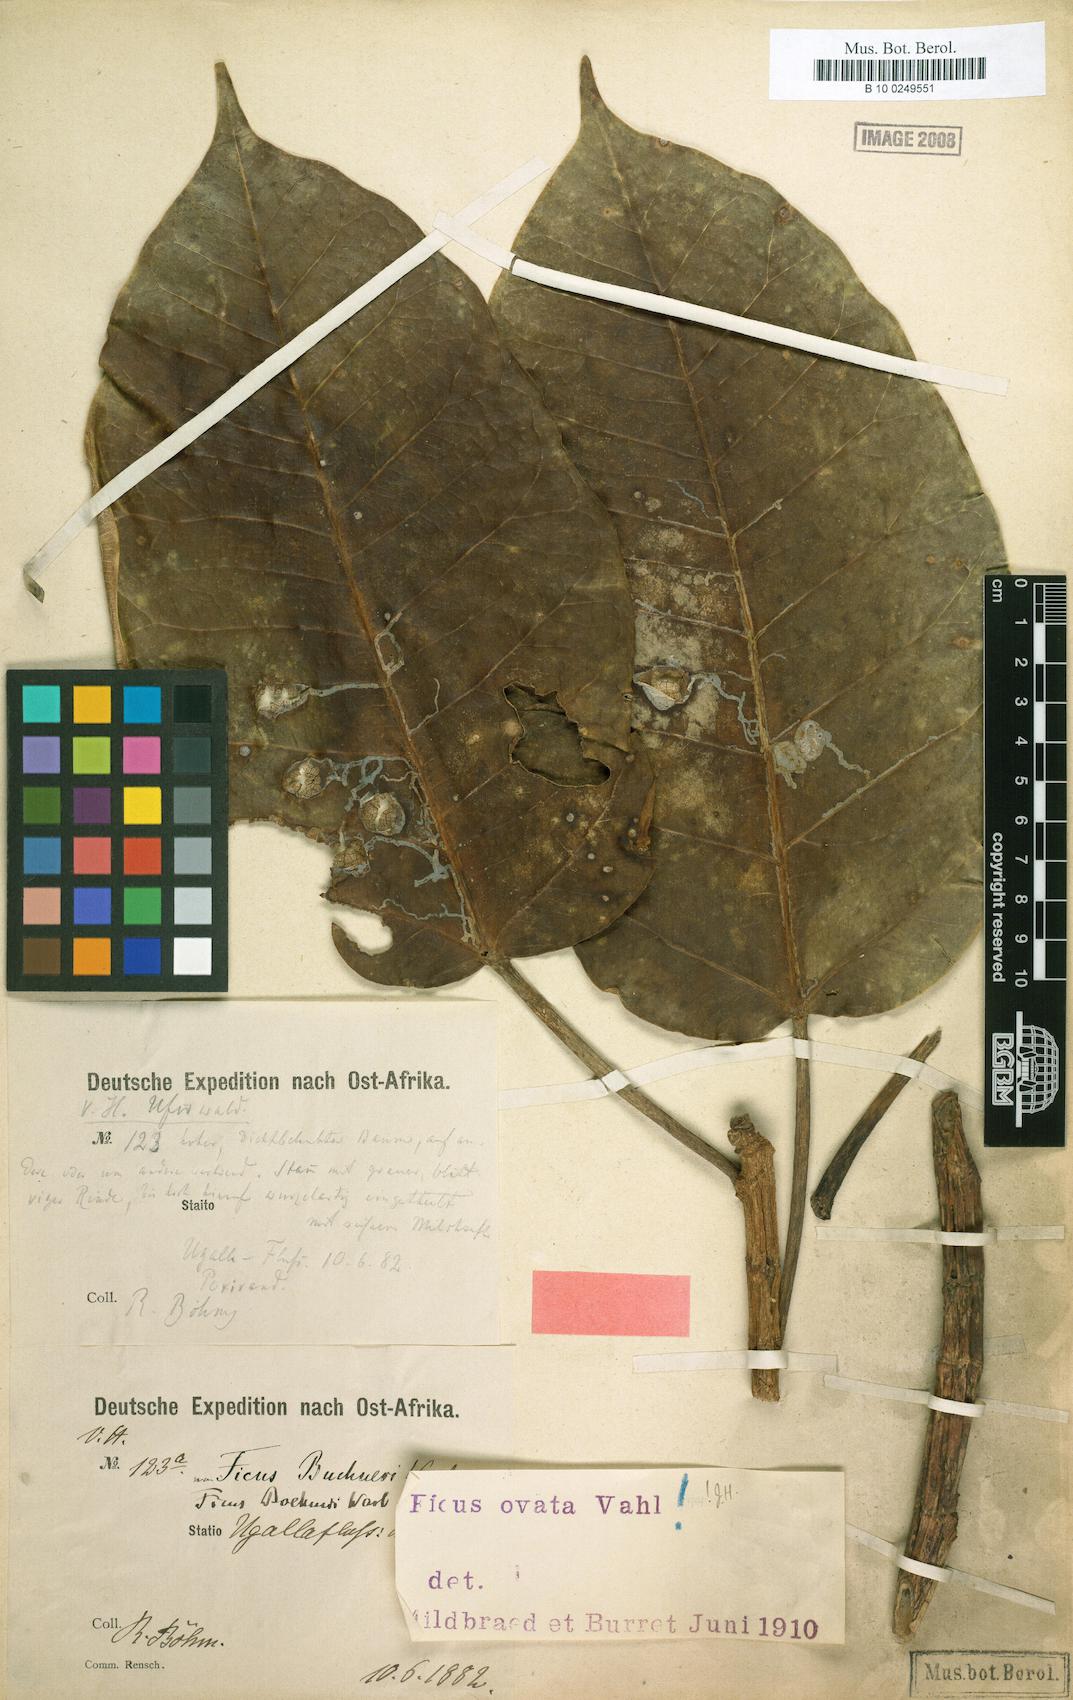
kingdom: Plantae
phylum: Tracheophyta
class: Magnoliopsida
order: Rosales
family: Moraceae
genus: Ficus
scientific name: Ficus laurifolia
